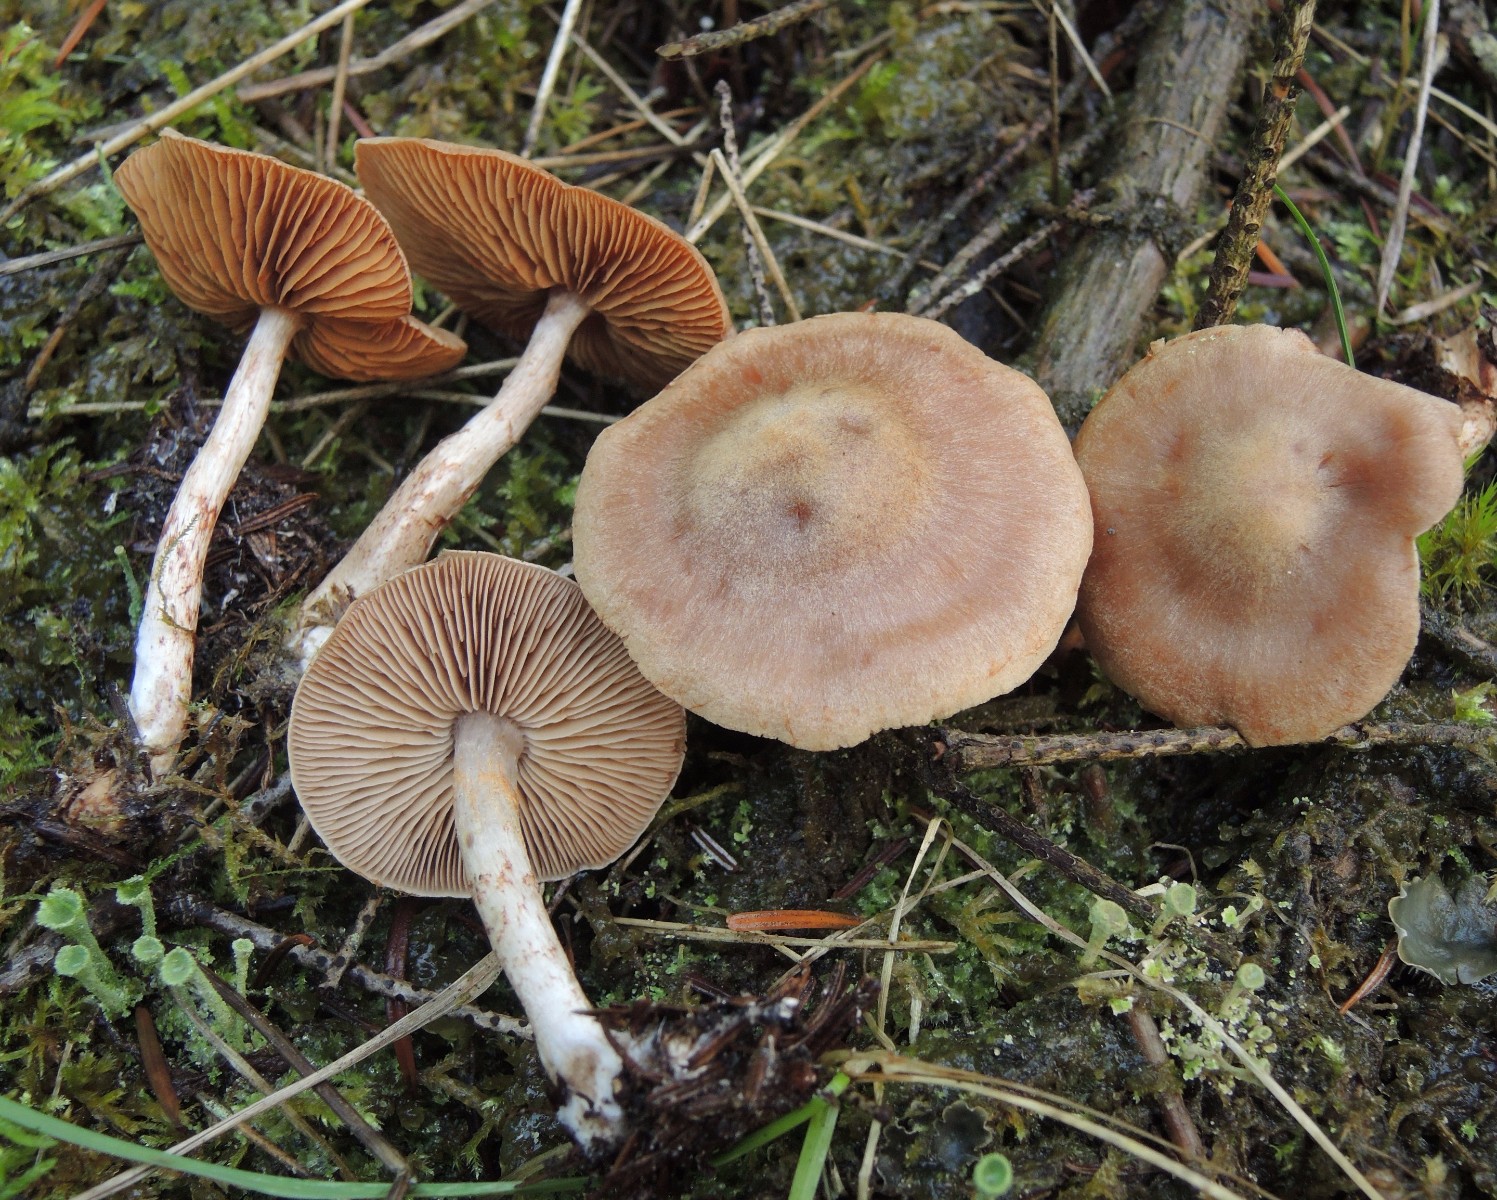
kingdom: Fungi
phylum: Basidiomycota
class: Agaricomycetes
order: Agaricales
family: Cortinariaceae
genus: Cortinarius
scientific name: Cortinarius spilomeus
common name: rødfnugget slørhat
